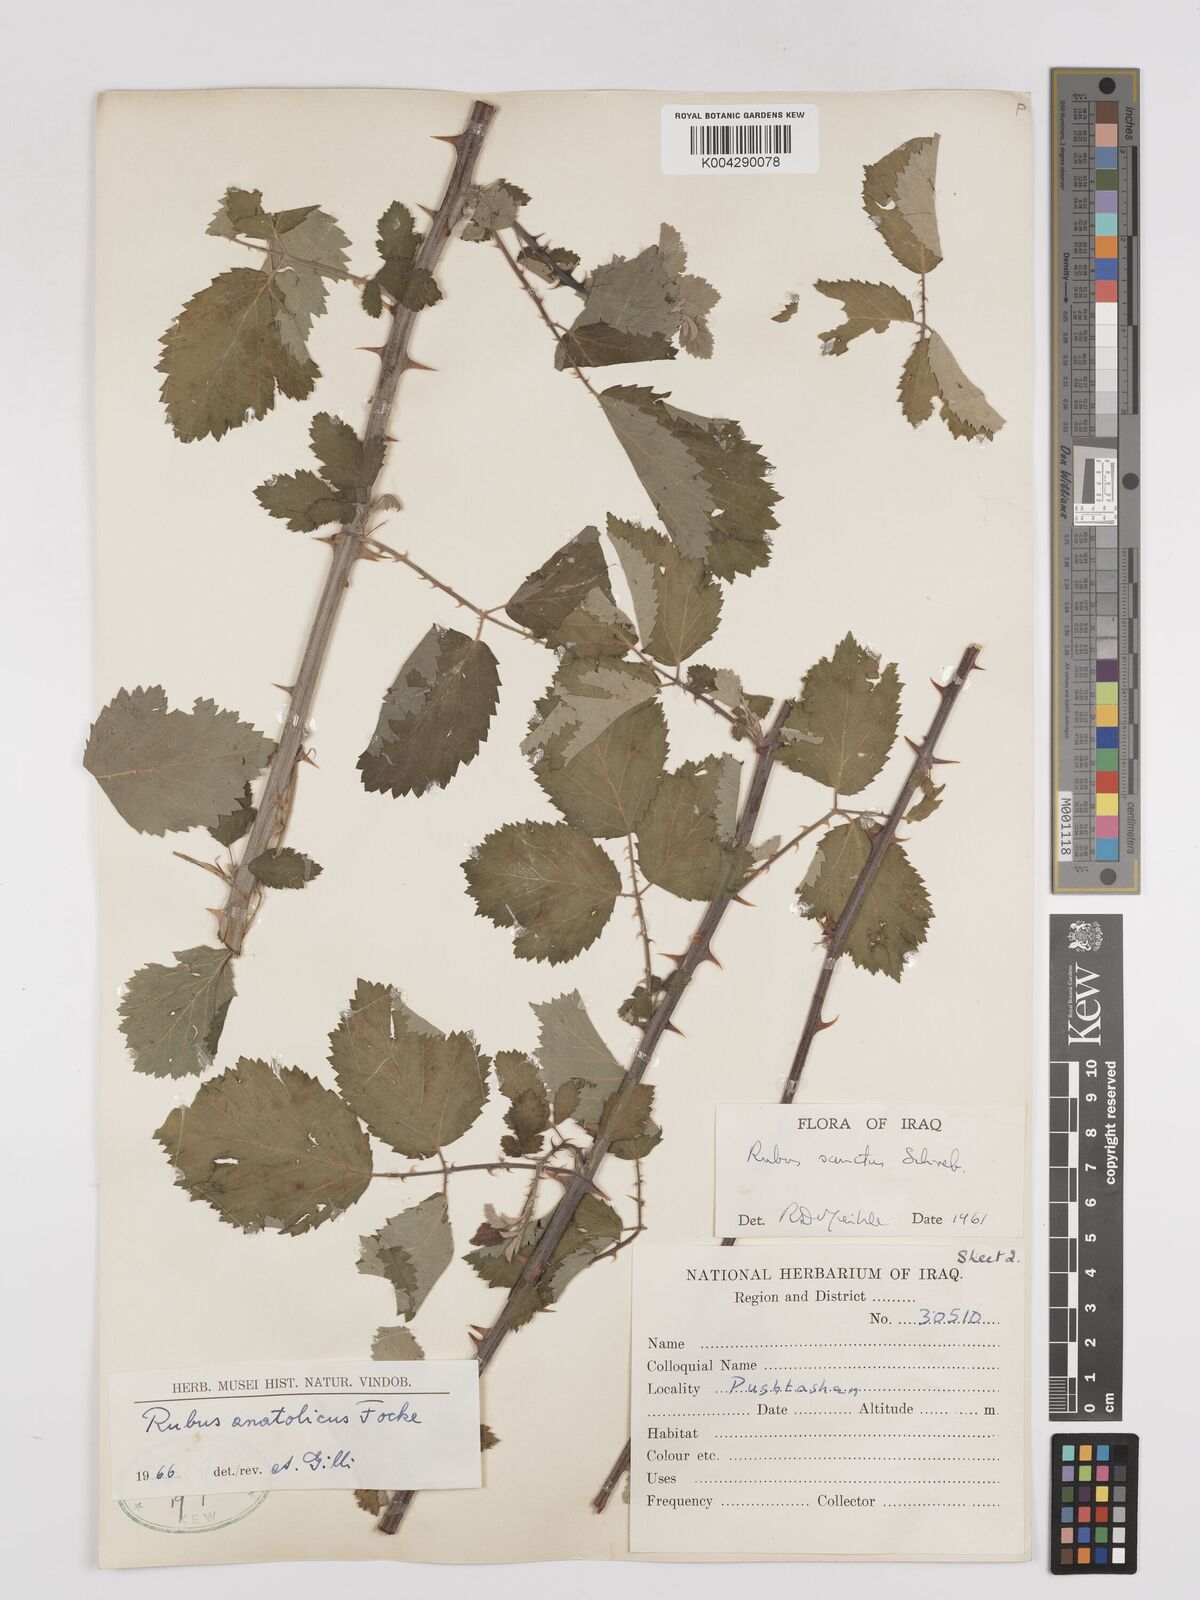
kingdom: Plantae
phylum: Tracheophyta
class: Magnoliopsida
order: Rosales
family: Rosaceae
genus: Rubus
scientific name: Rubus sanctus
